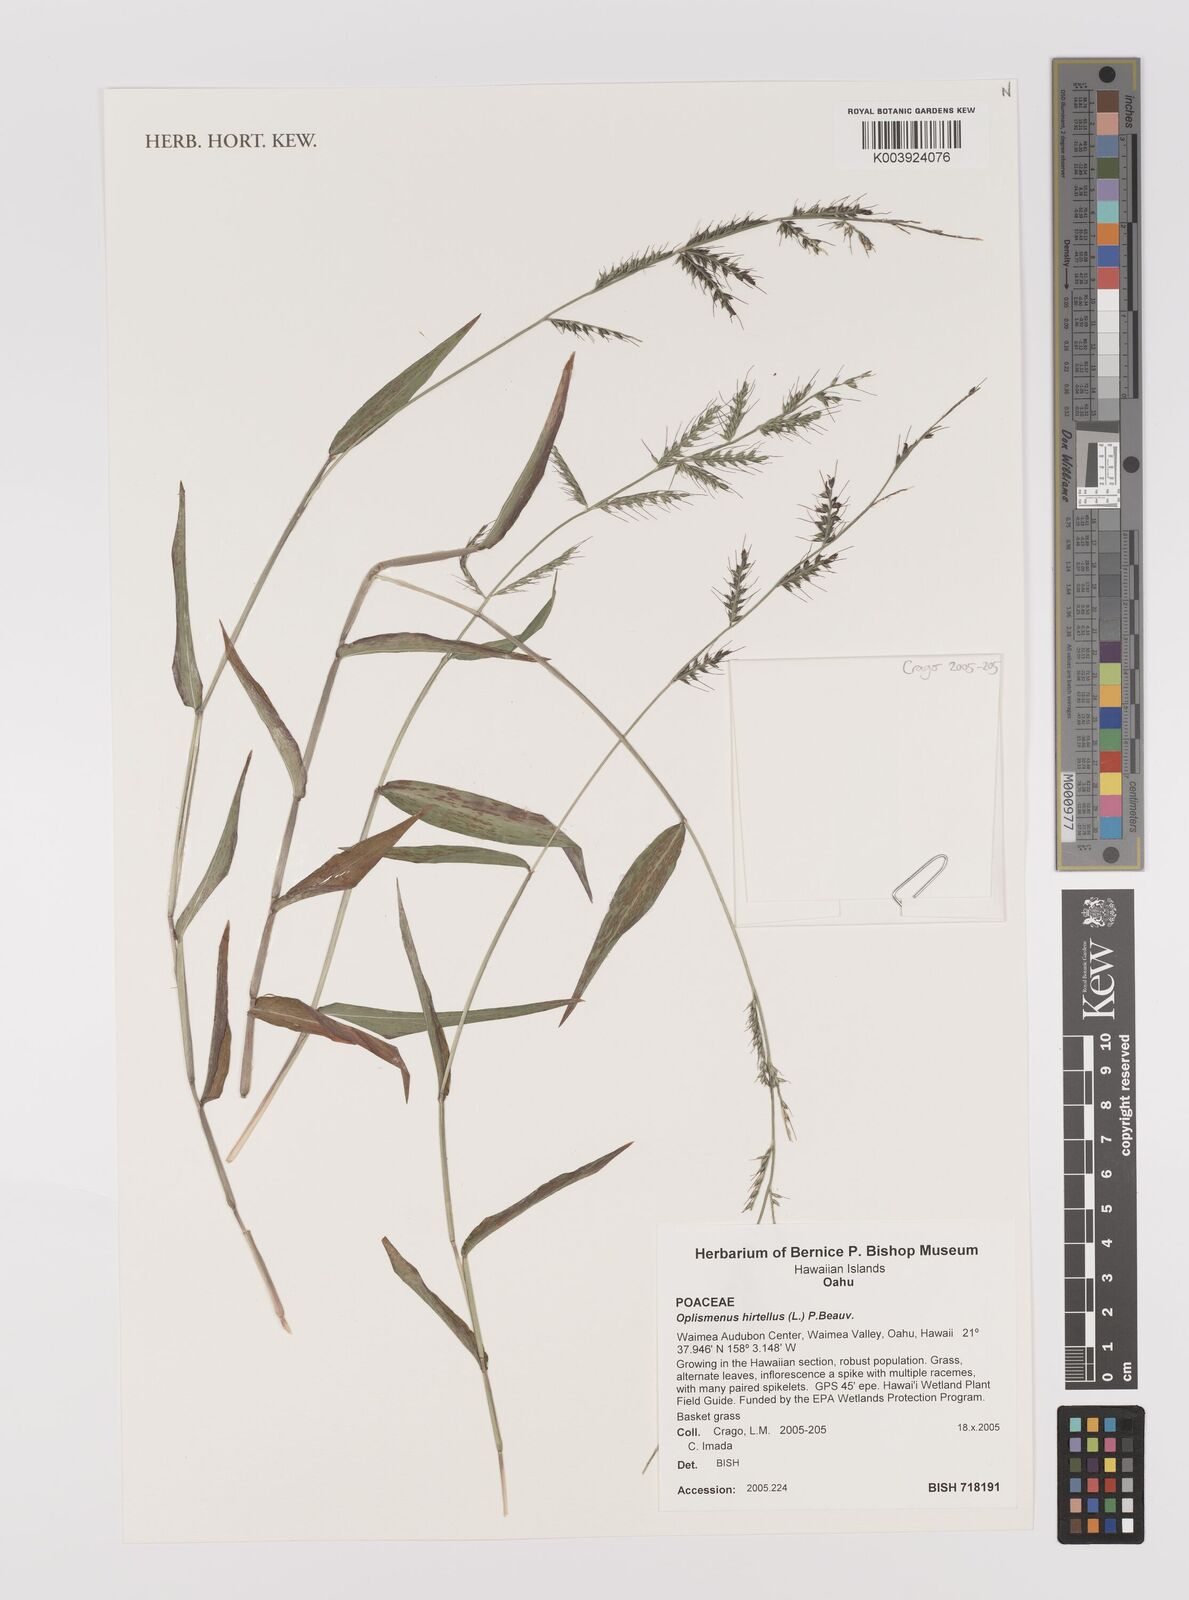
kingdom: Plantae
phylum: Tracheophyta
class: Liliopsida
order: Poales
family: Poaceae
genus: Oplismenus
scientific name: Oplismenus hirtellus
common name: Basketgrass
